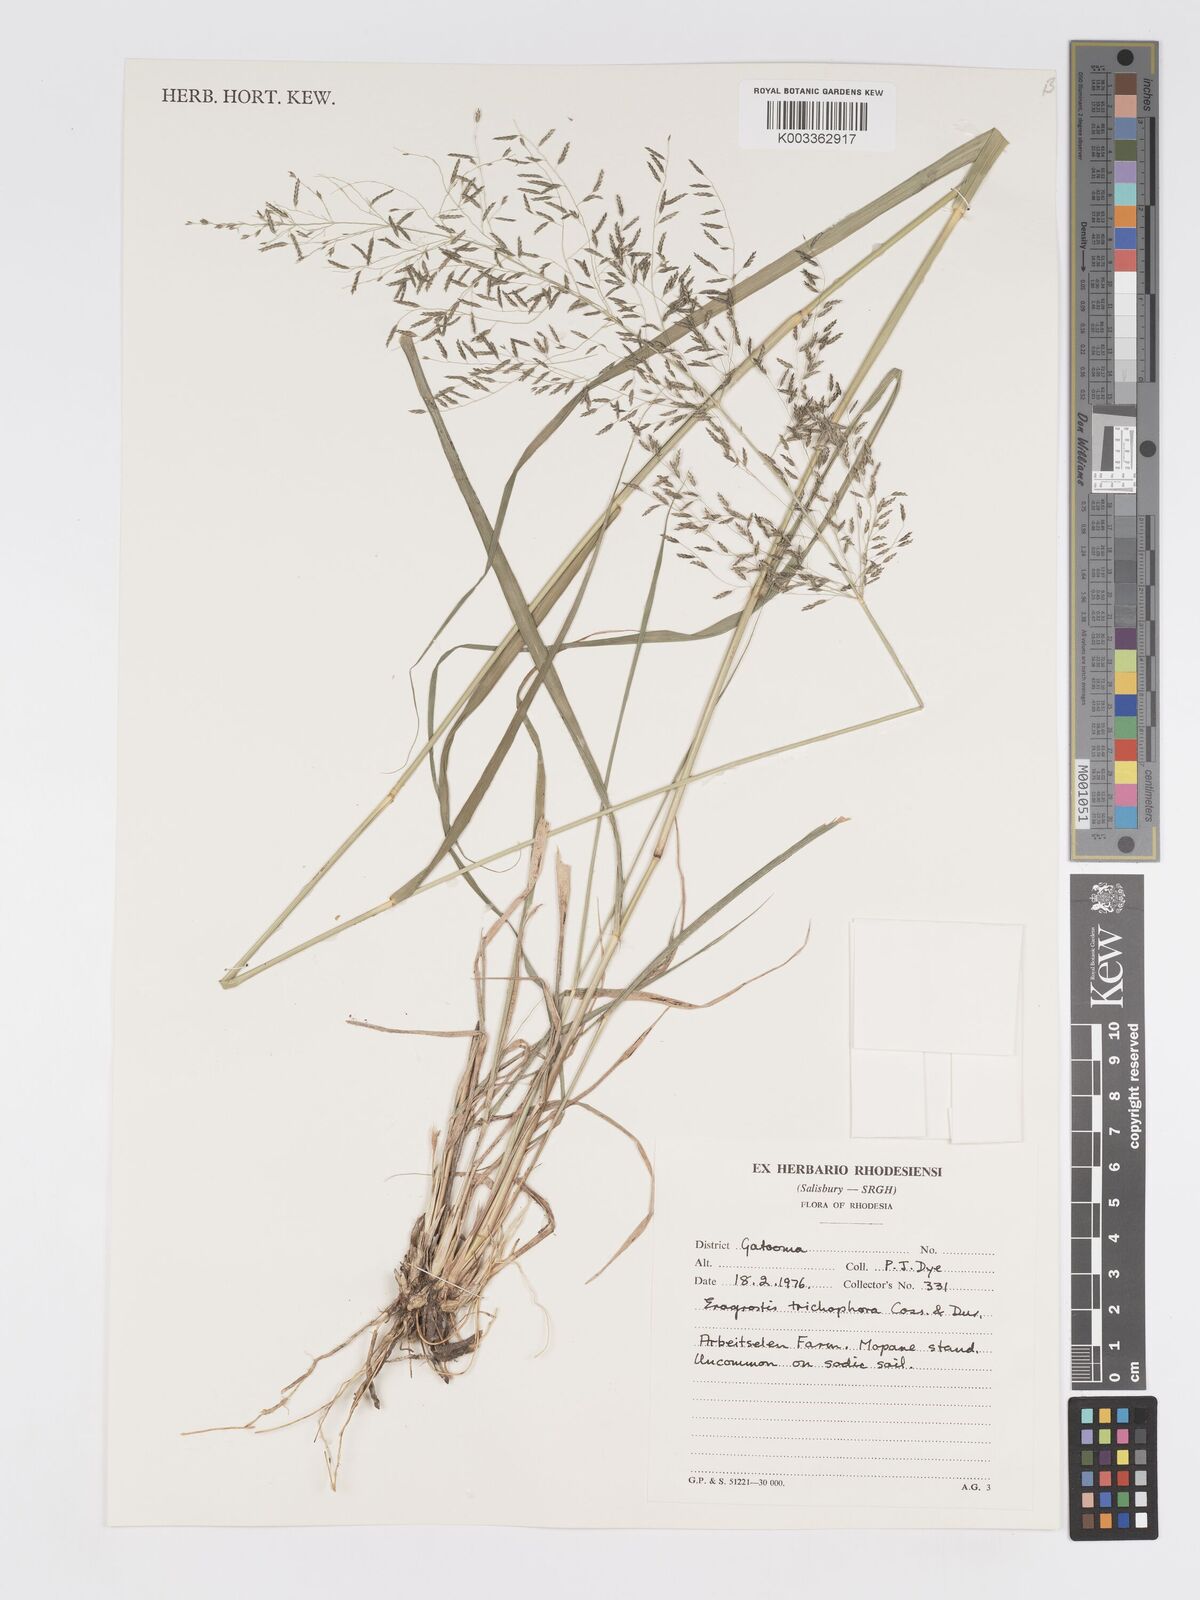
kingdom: Plantae
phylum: Tracheophyta
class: Liliopsida
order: Poales
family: Poaceae
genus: Eragrostis
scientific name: Eragrostis cylindriflora
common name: Cylinderflower lovegrass
